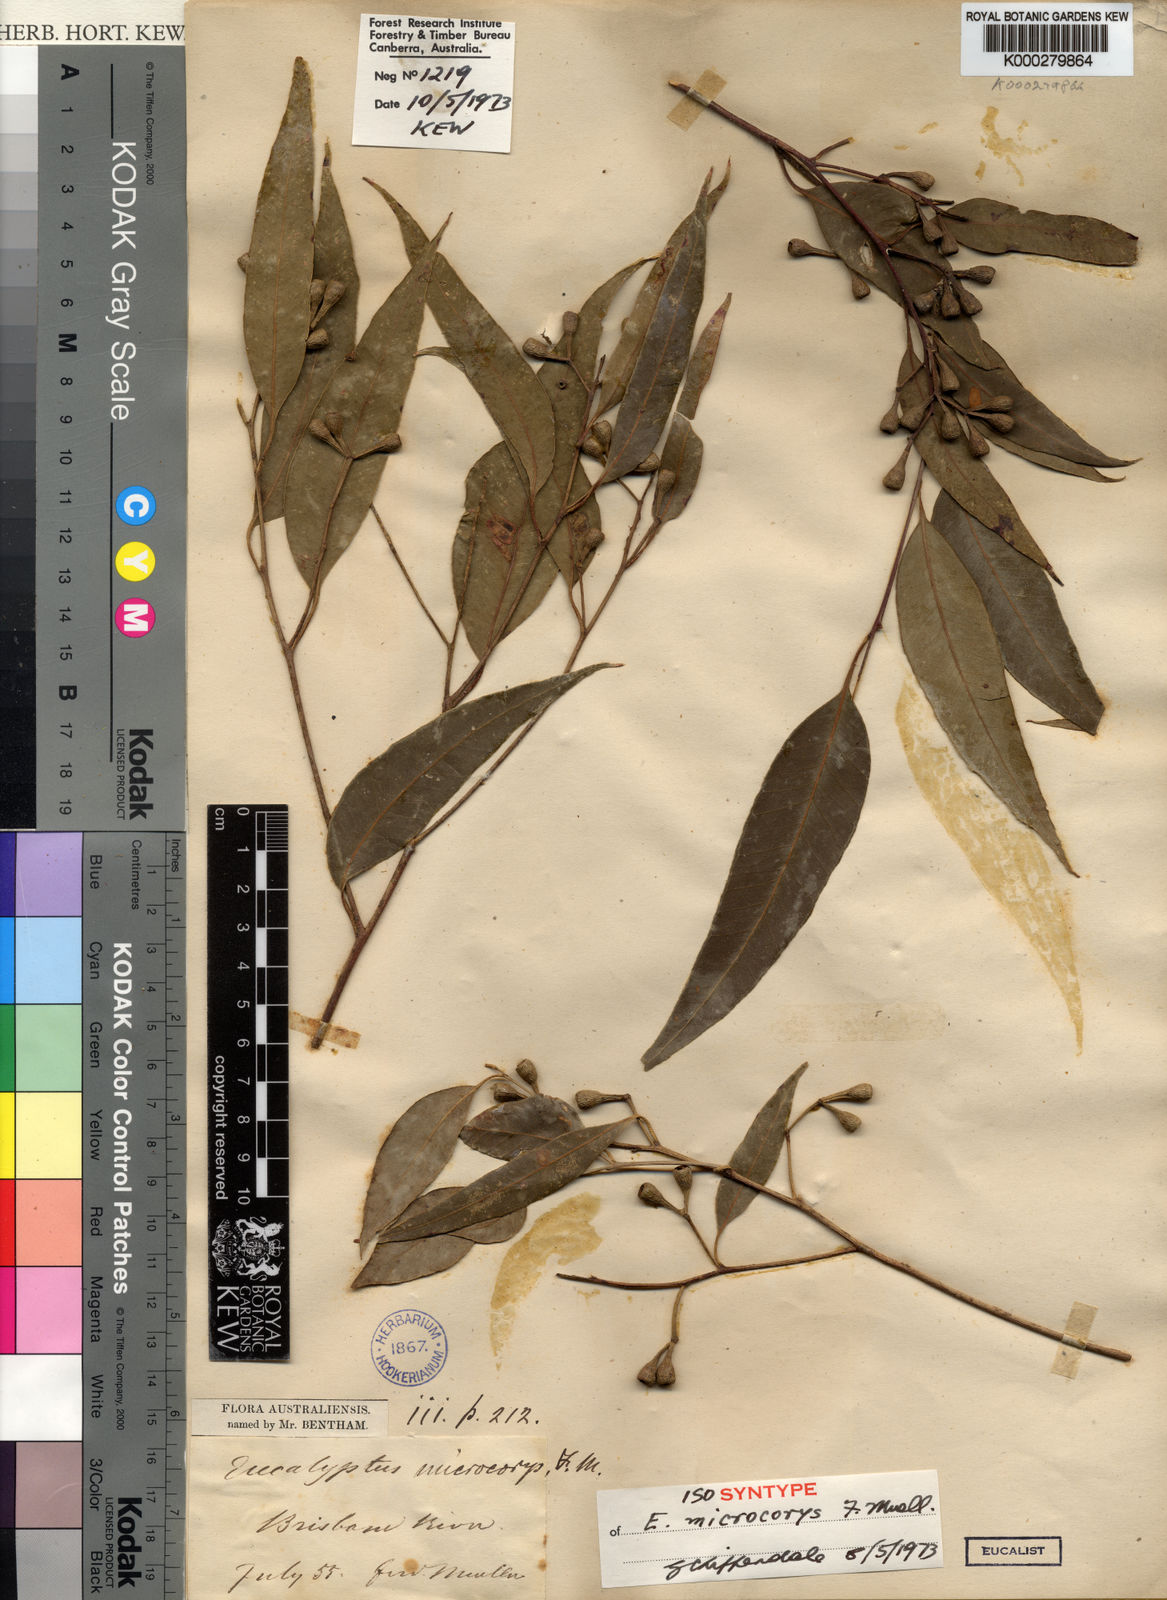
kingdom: Plantae
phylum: Tracheophyta
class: Magnoliopsida
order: Myrtales
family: Myrtaceae
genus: Eucalyptus
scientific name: Eucalyptus microcorys
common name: Tallowwood
